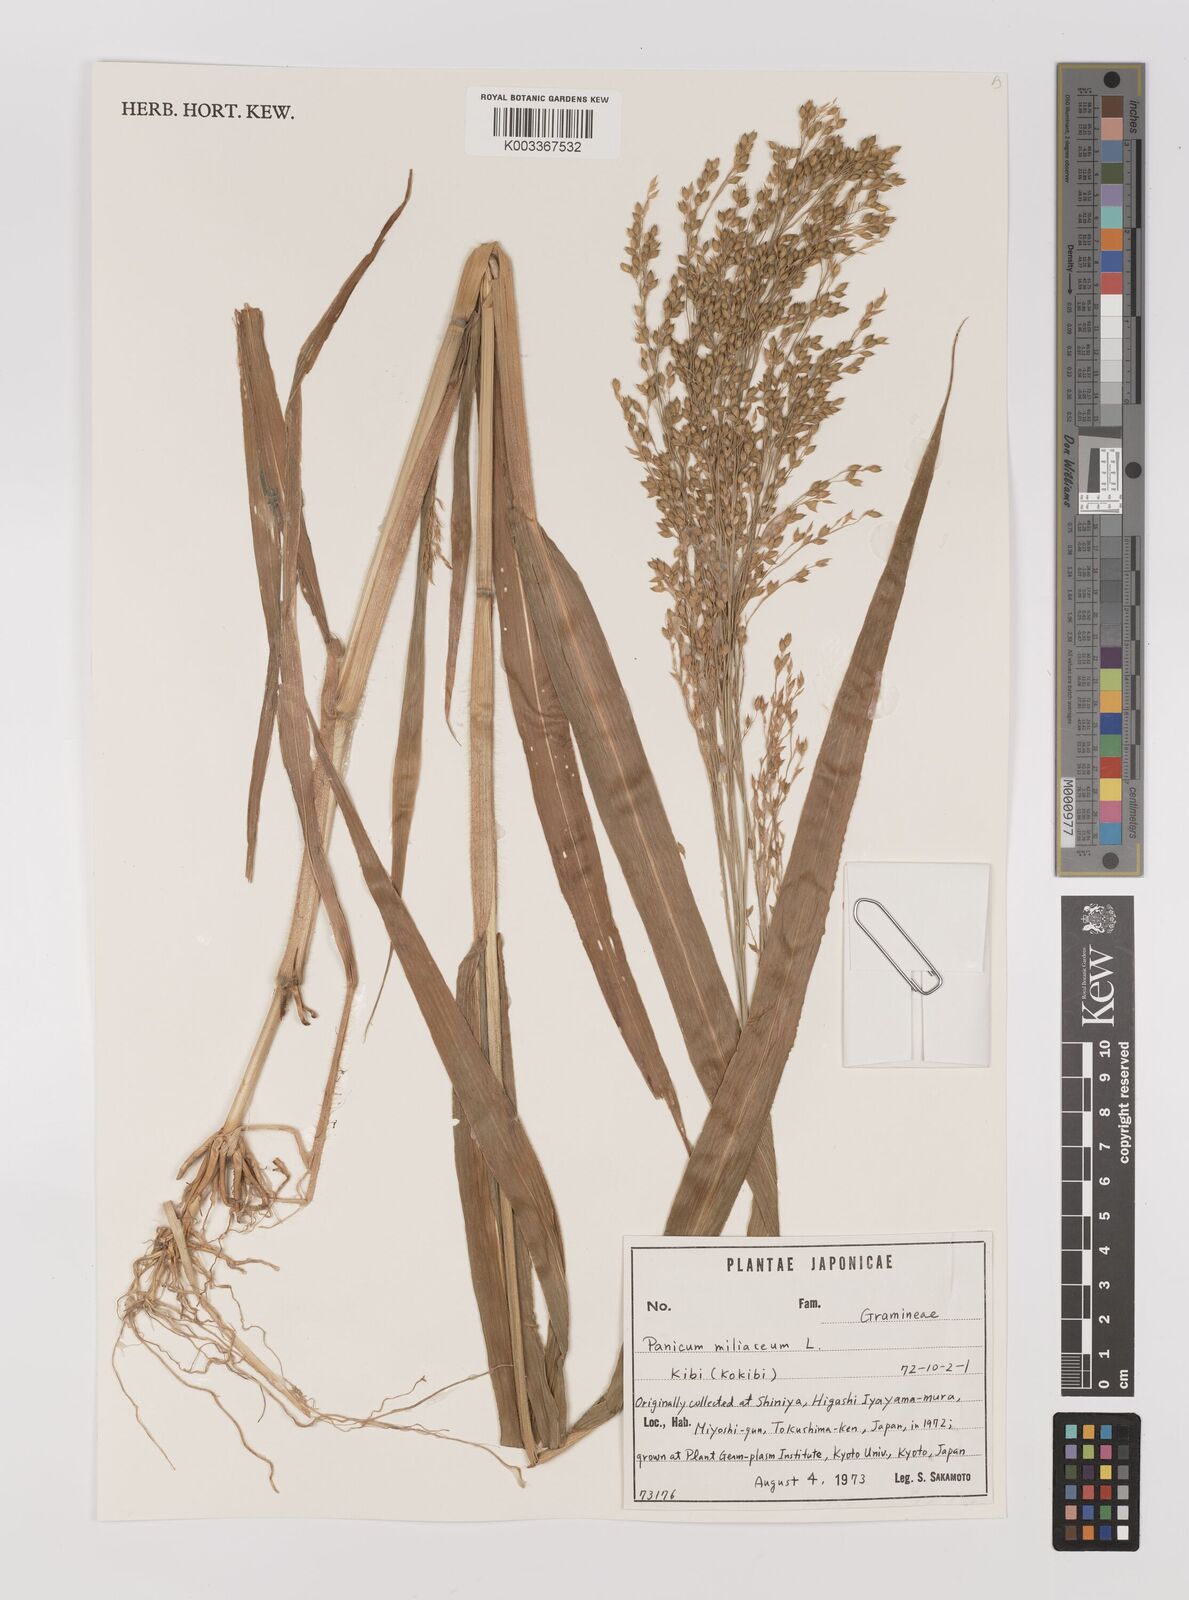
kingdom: Plantae
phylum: Tracheophyta
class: Liliopsida
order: Poales
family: Poaceae
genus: Panicum
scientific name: Panicum miliaceum
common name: Common millet
